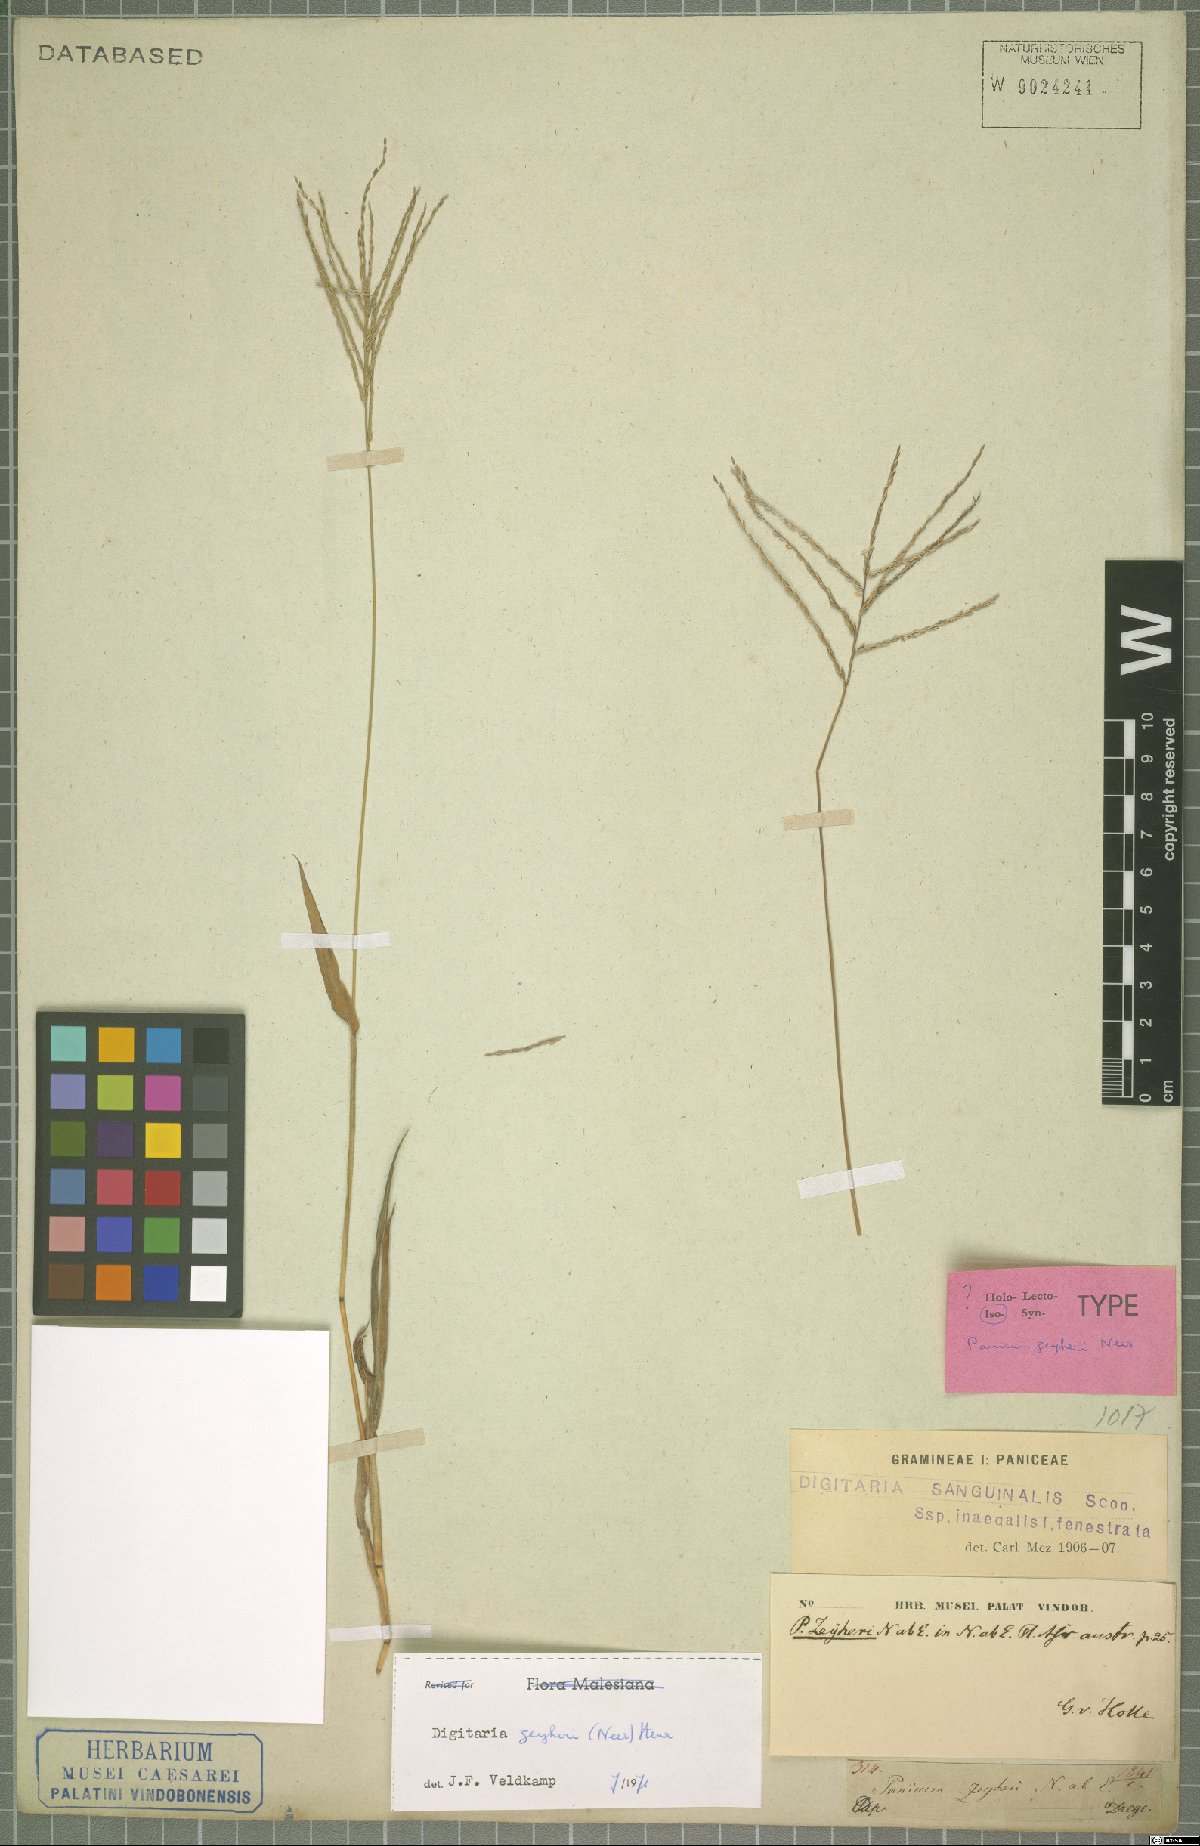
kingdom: Plantae
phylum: Tracheophyta
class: Liliopsida
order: Poales
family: Poaceae
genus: Digitaria
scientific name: Digitaria velutina
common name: Long-plume finger grass
